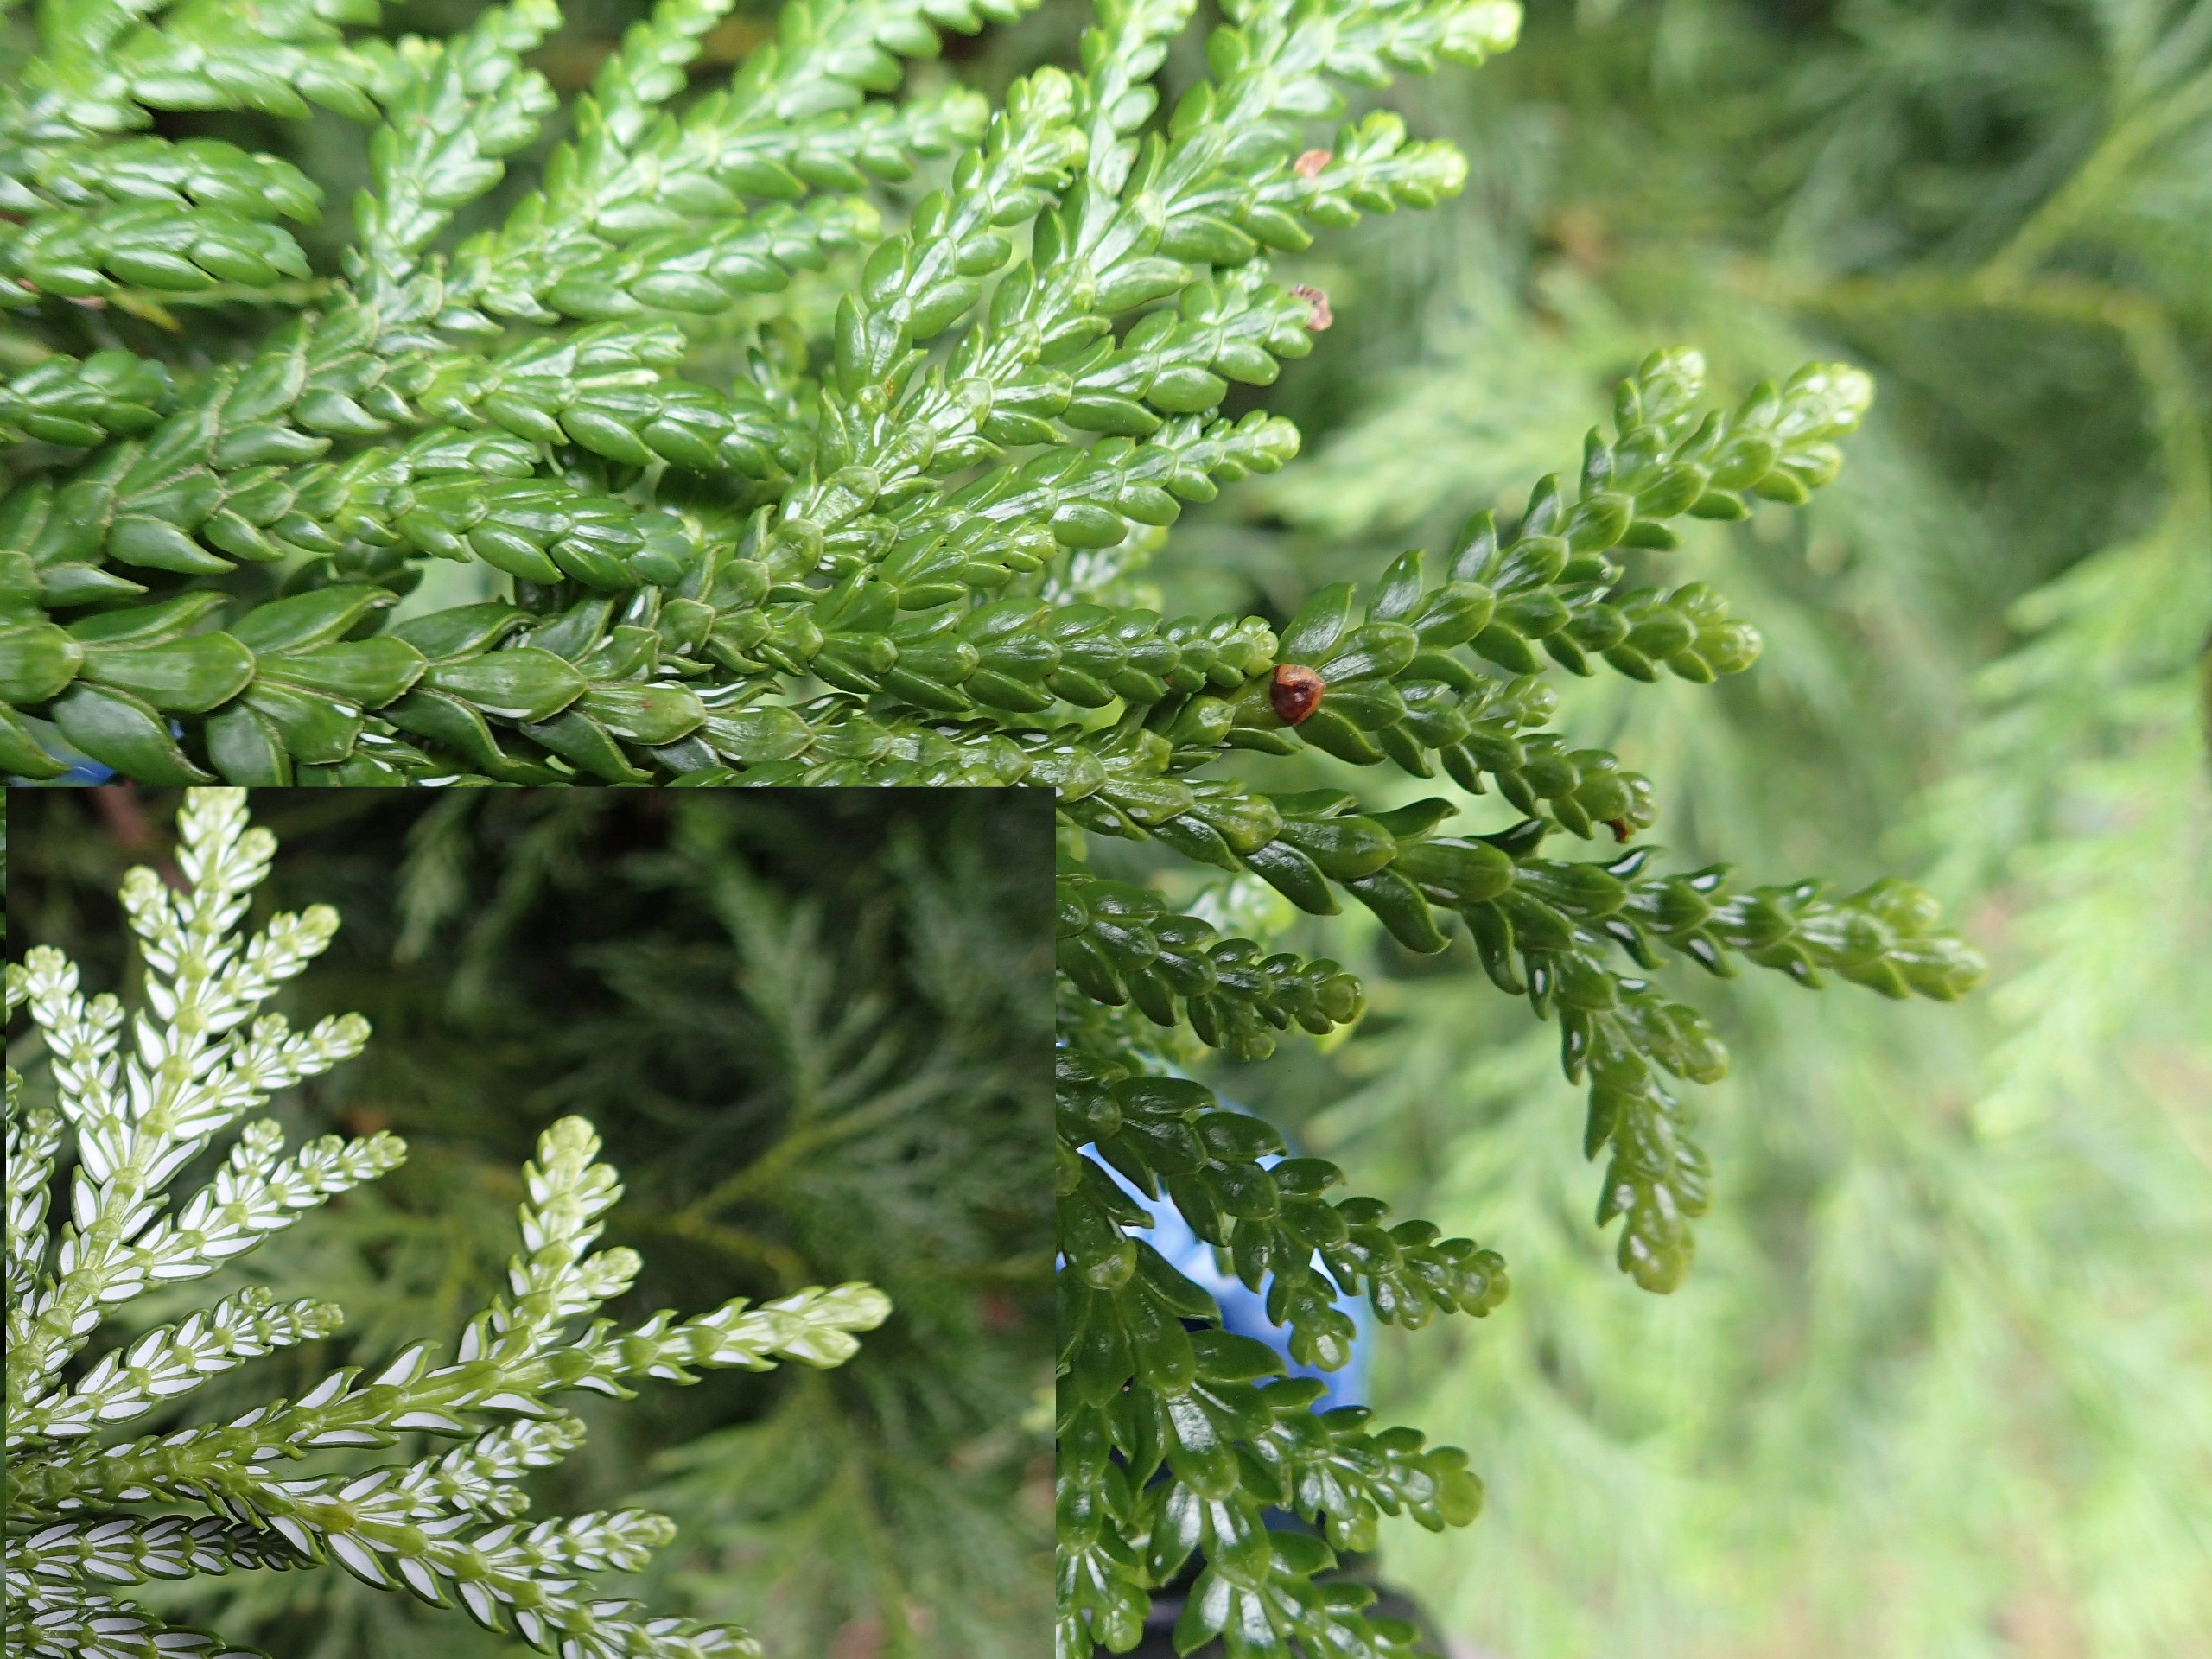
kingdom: Plantae
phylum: Tracheophyta
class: Pinopsida
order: Pinales
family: Cupressaceae
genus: Thuja
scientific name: Thuja plicata
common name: Kæmpe-thuja
